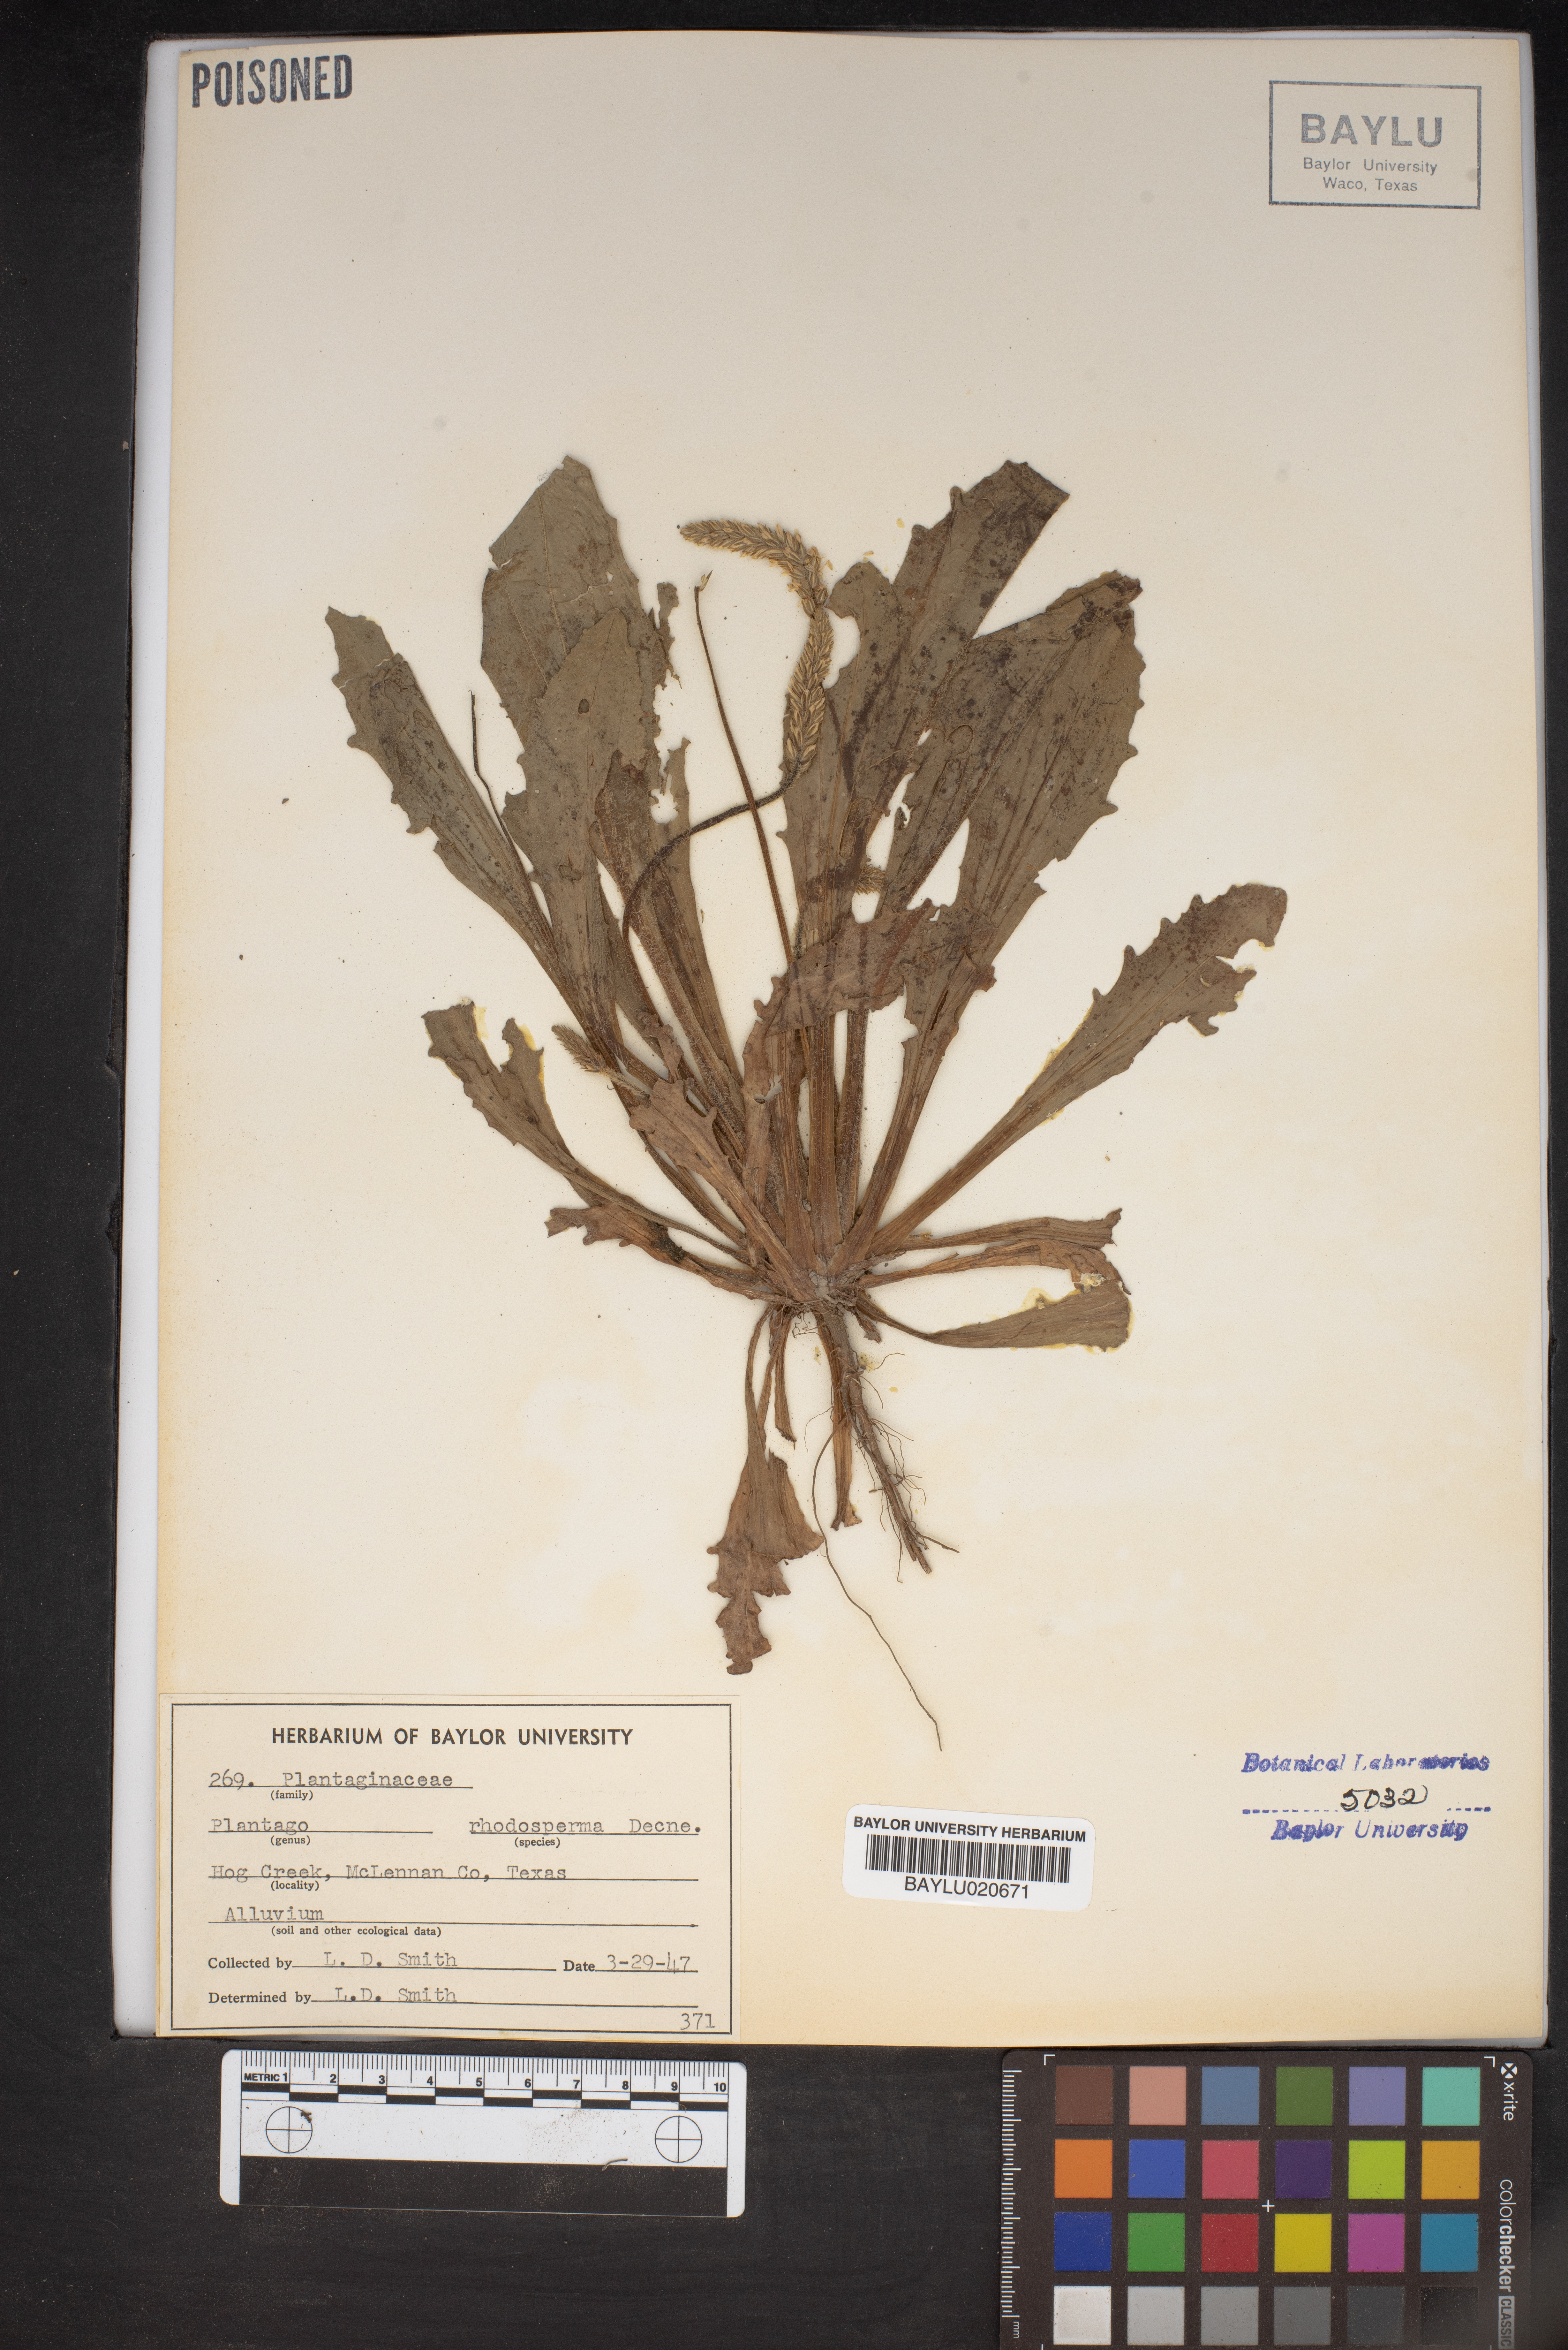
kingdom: Plantae
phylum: Tracheophyta
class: Magnoliopsida
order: Lamiales
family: Plantaginaceae
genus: Plantago
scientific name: Plantago rhodosperma
